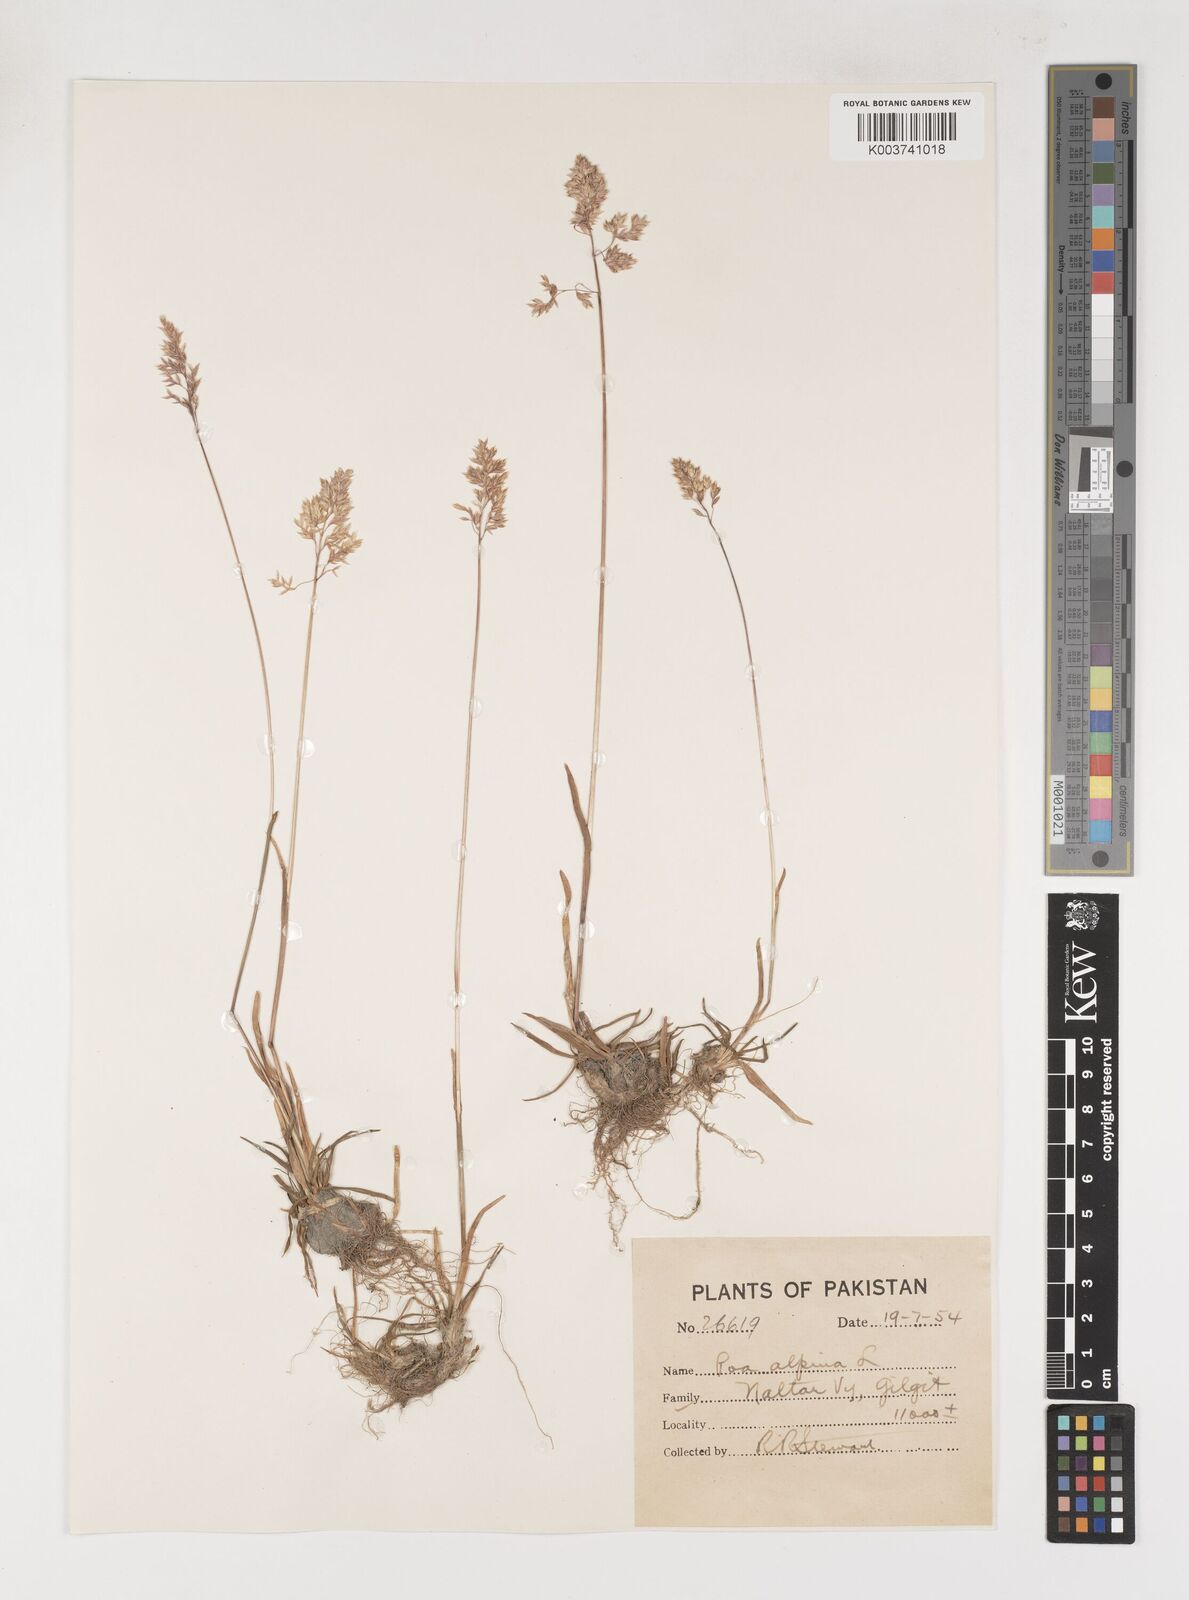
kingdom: Plantae
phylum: Tracheophyta
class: Liliopsida
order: Poales
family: Poaceae
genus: Poa
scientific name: Poa alpina
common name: Alpine bluegrass
